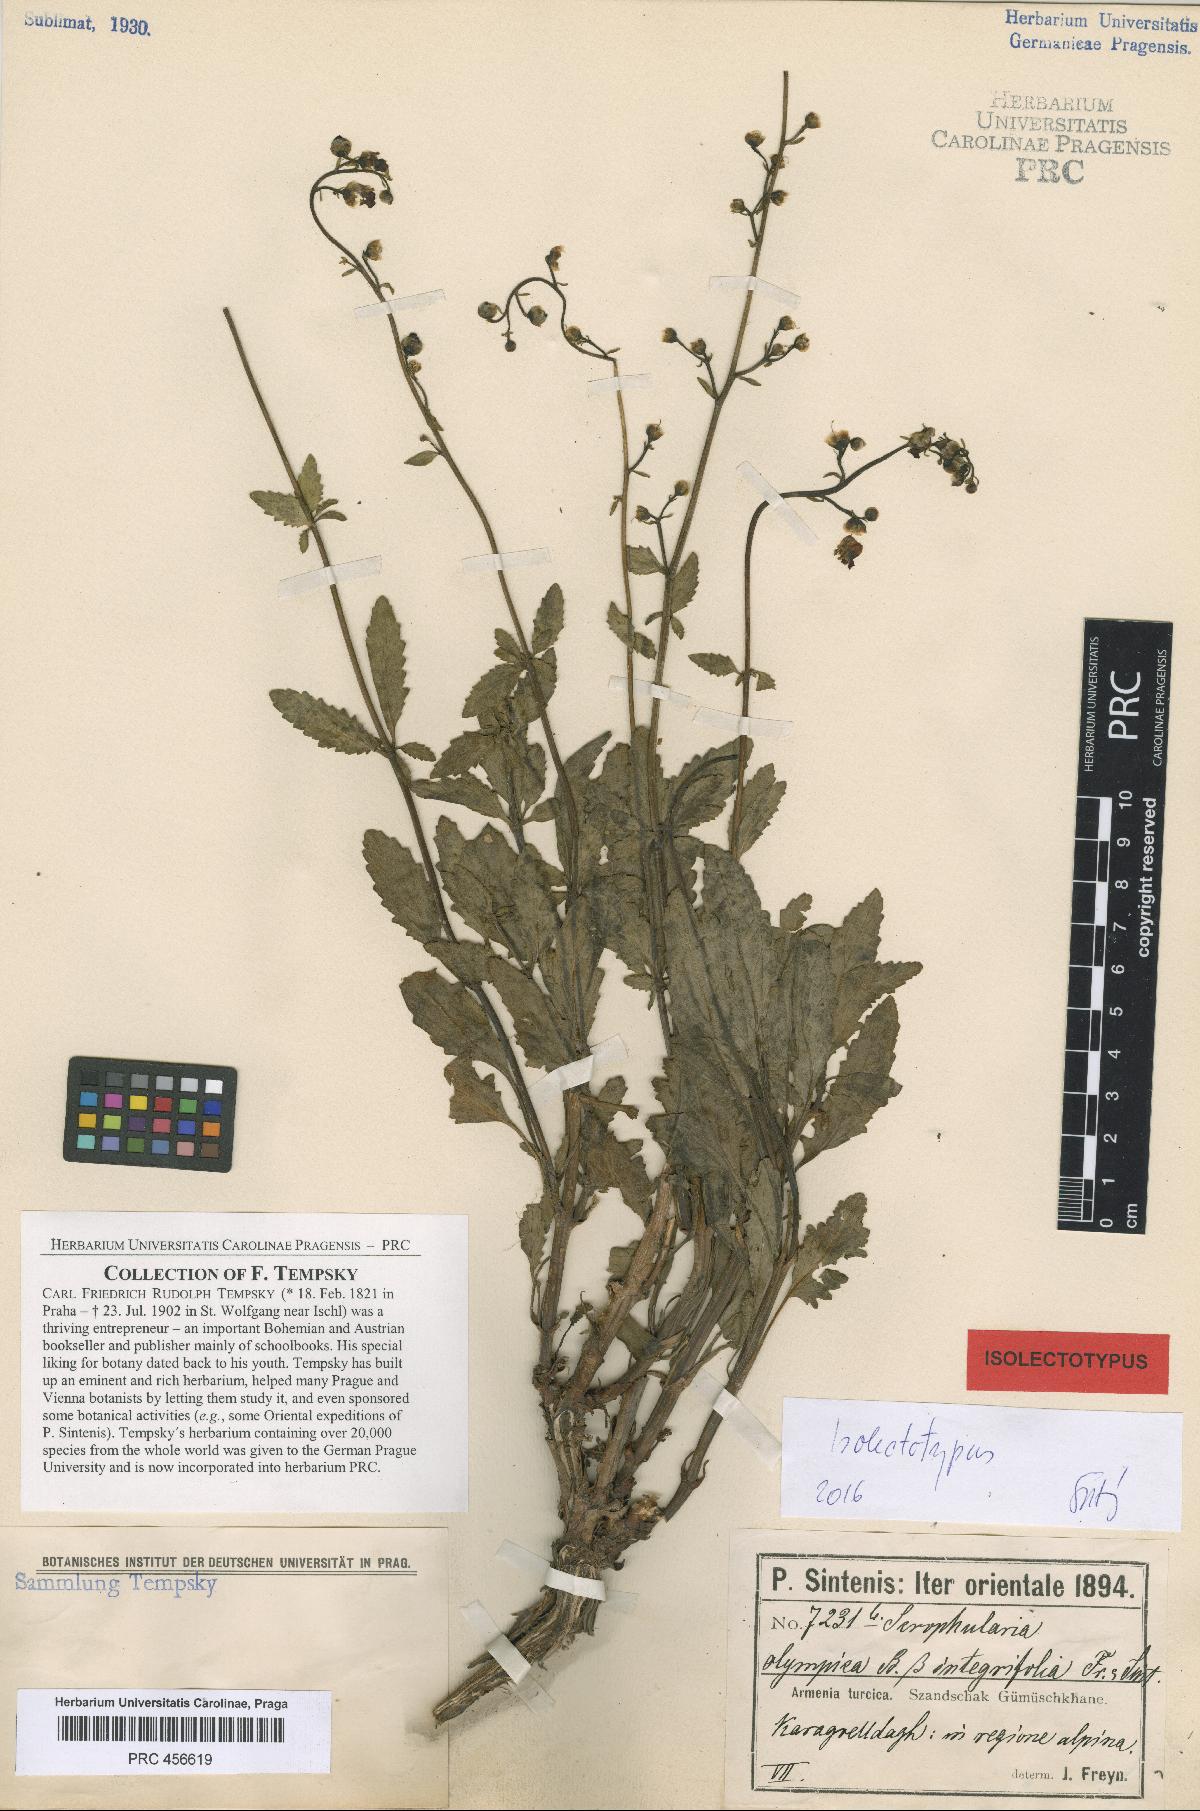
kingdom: Plantae
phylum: Tracheophyta
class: Magnoliopsida
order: Lamiales
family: Scrophulariaceae
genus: Scrophularia
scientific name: Scrophularia olympica
